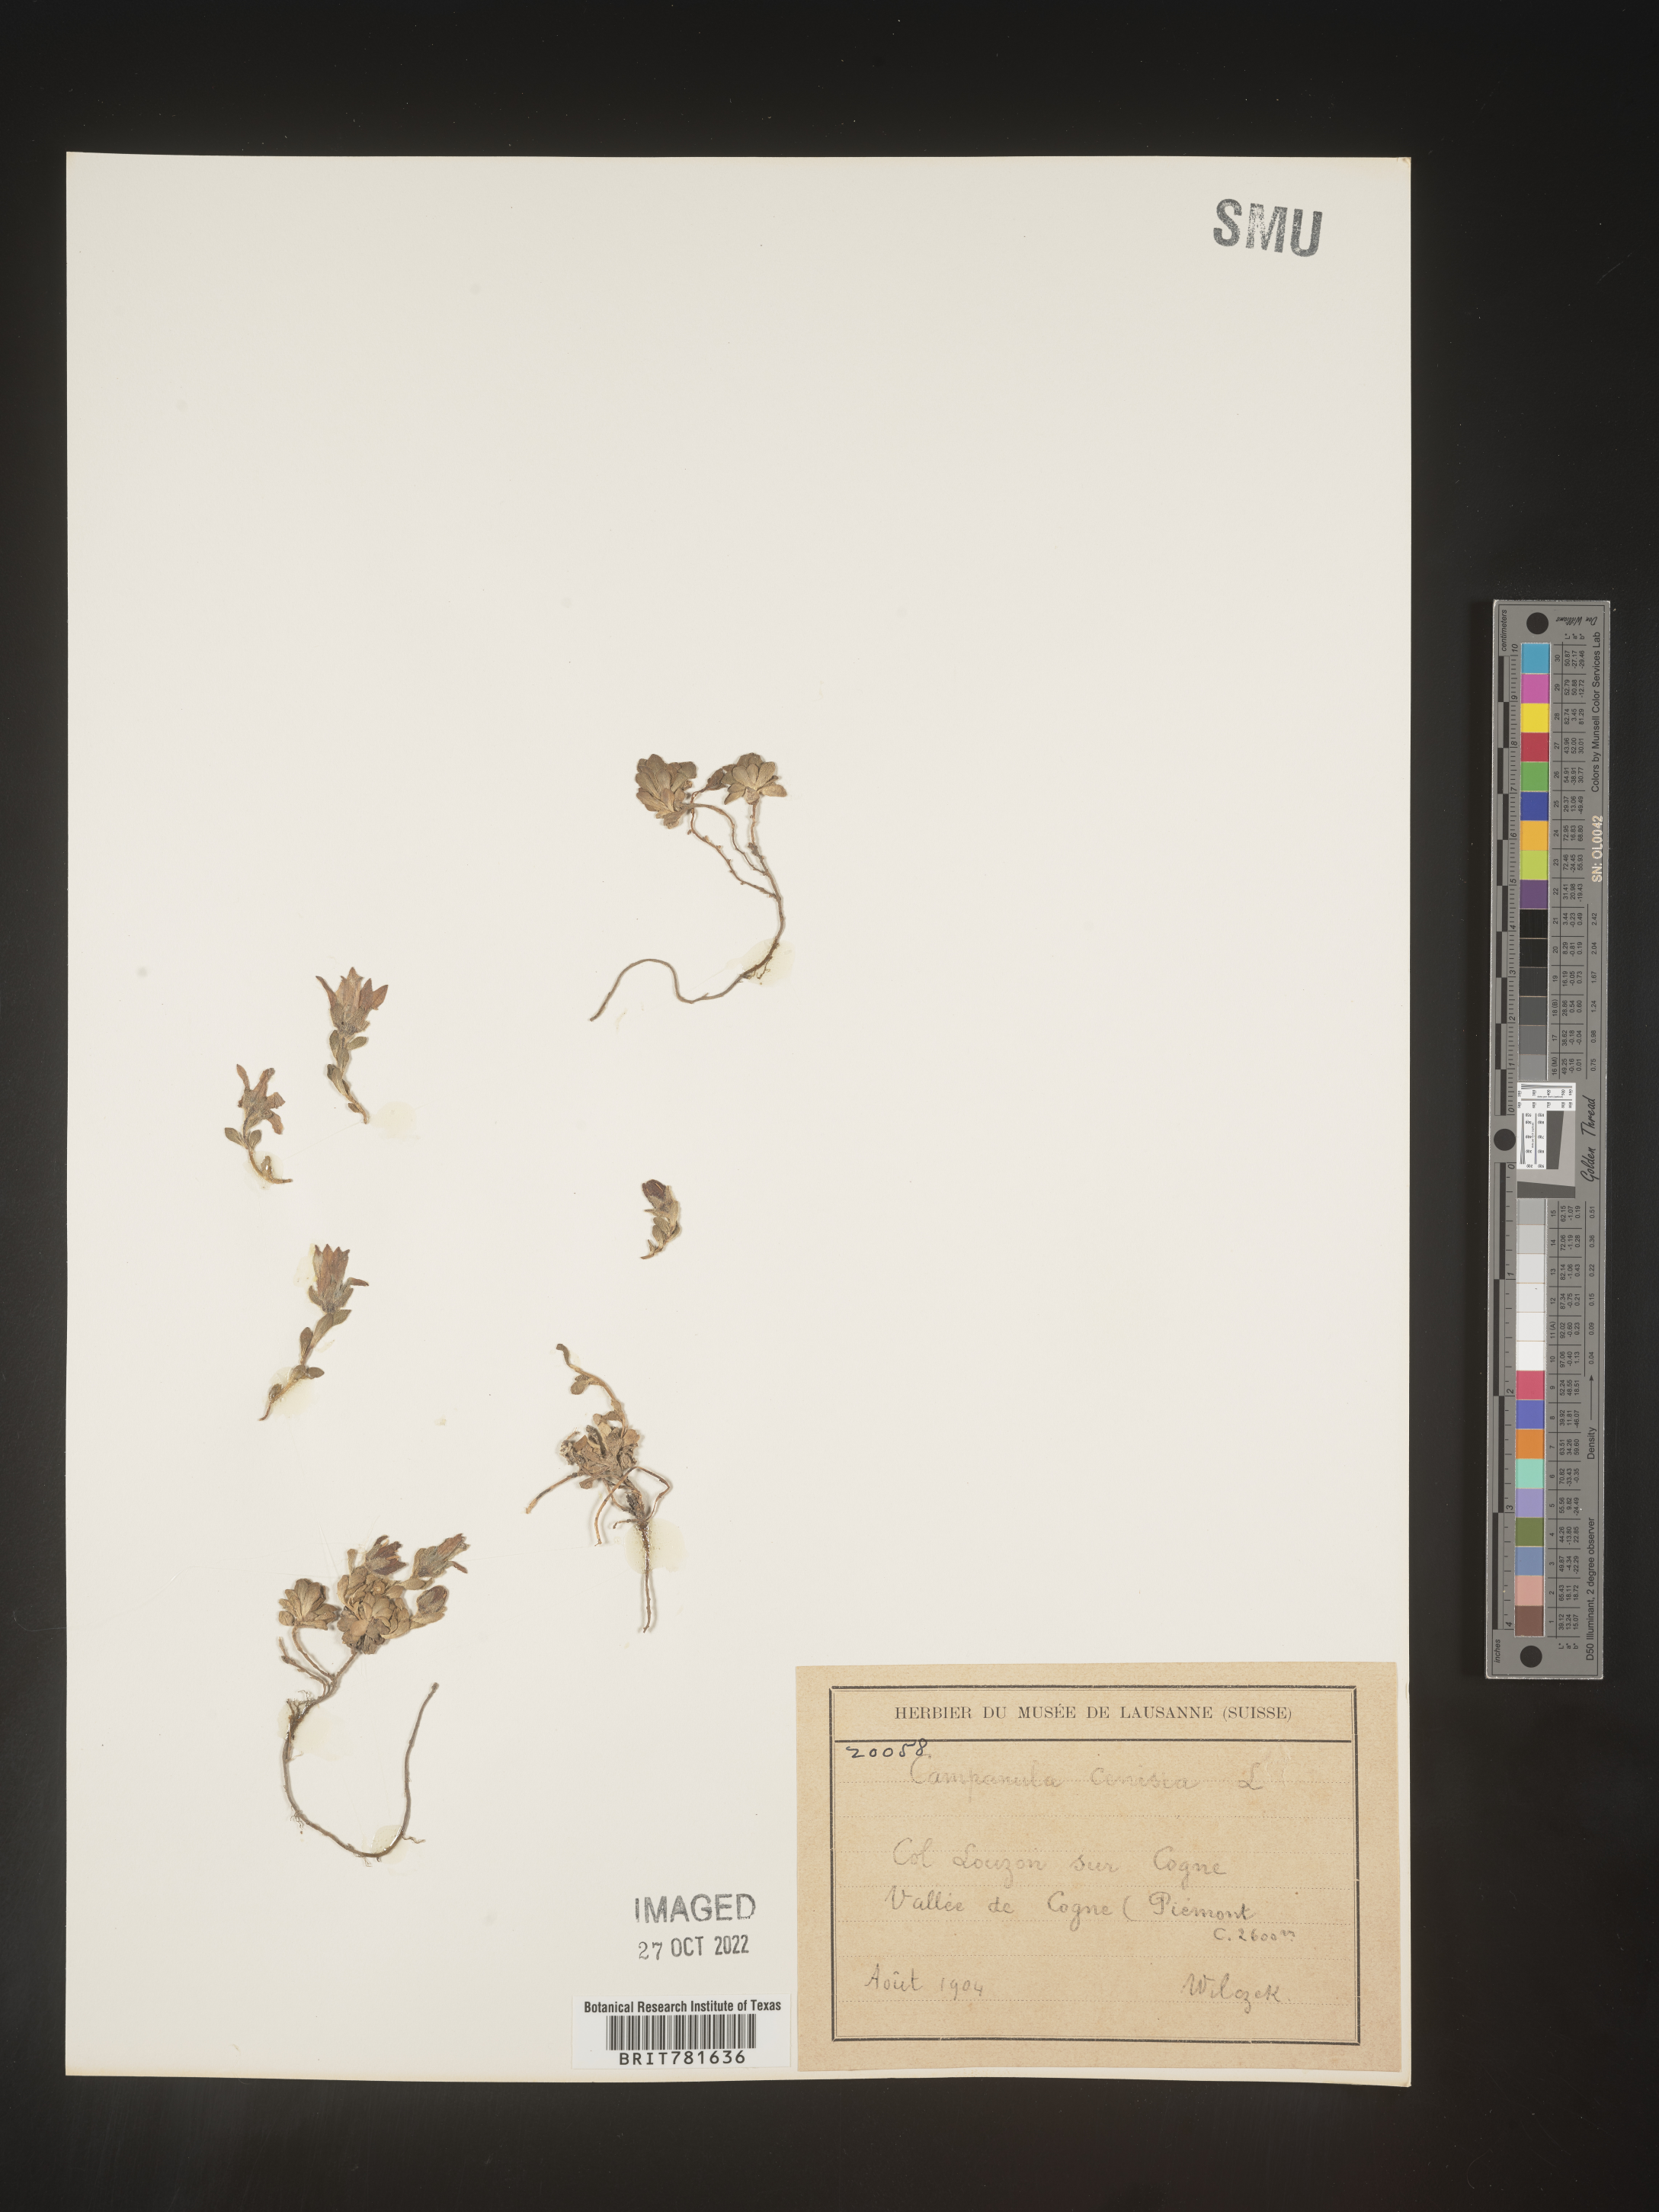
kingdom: Plantae
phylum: Tracheophyta
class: Magnoliopsida
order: Asterales
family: Campanulaceae
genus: Campanula
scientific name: Campanula
